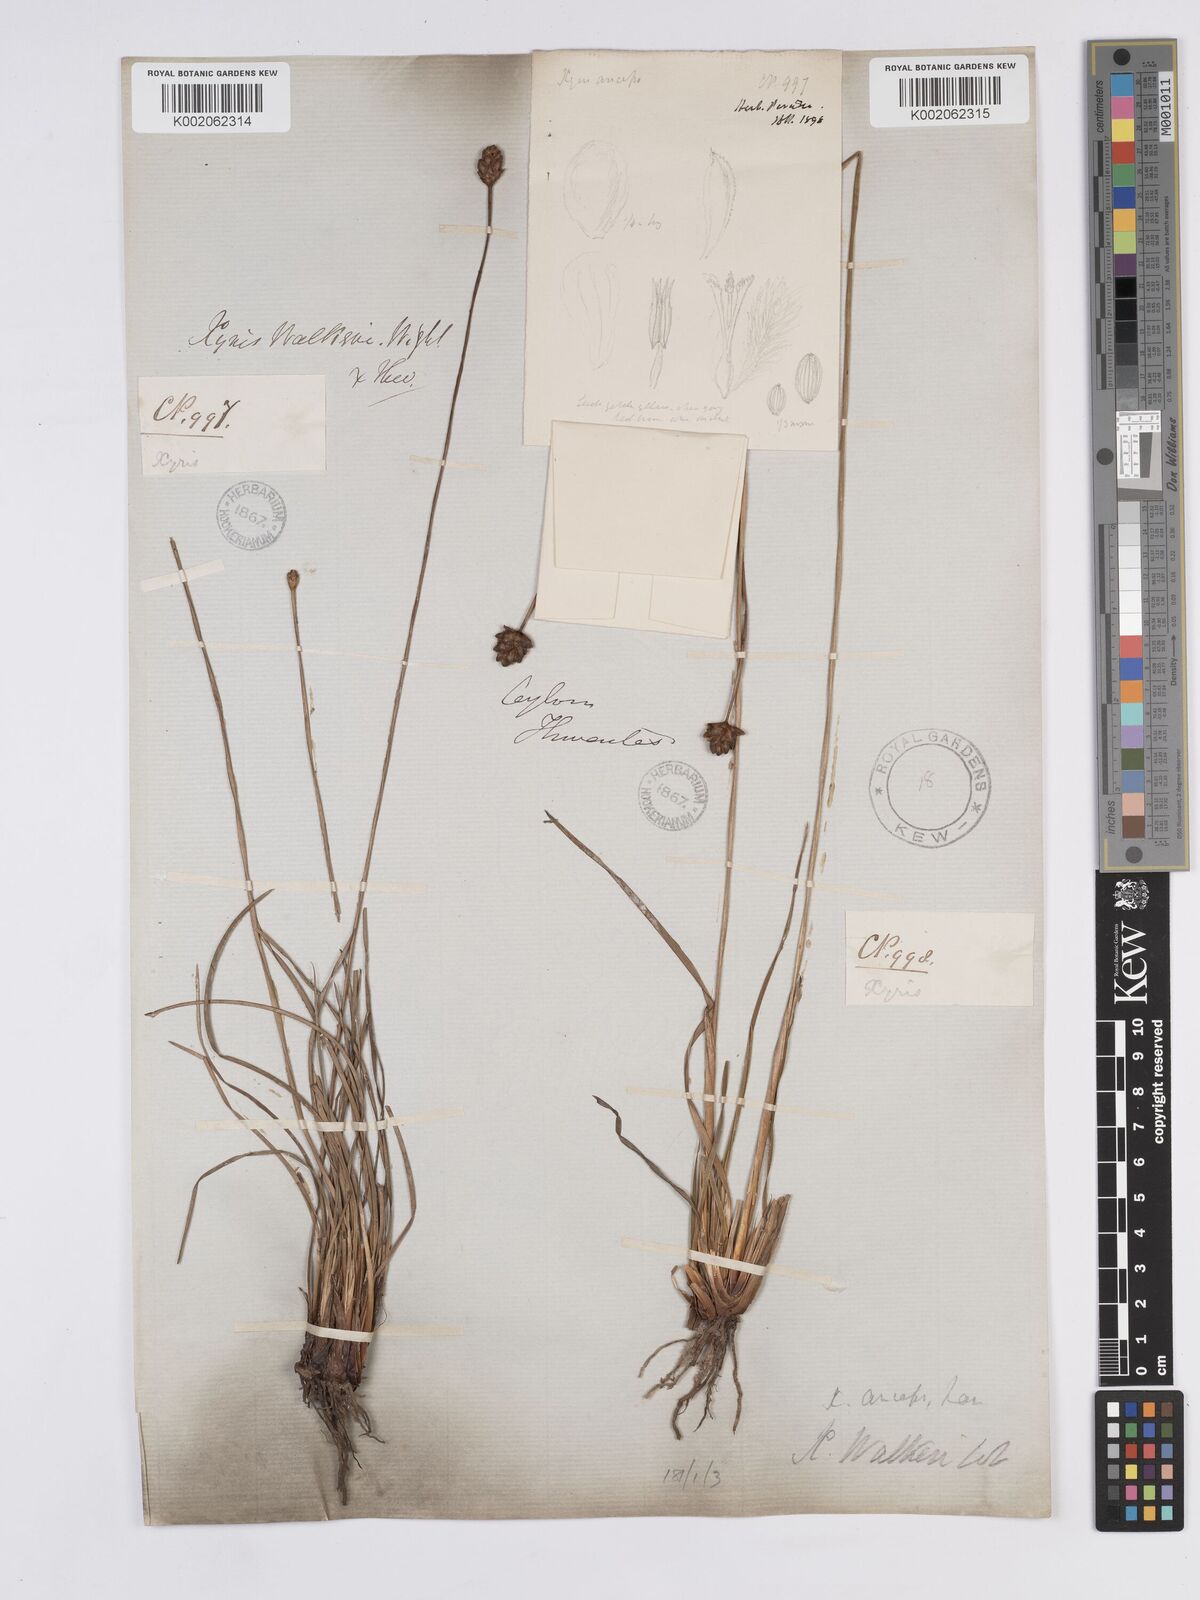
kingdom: Plantae
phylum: Tracheophyta
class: Liliopsida
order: Poales
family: Xyridaceae
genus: Xyris
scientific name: Xyris complanata
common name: Hawai'i yelloweyed grass
